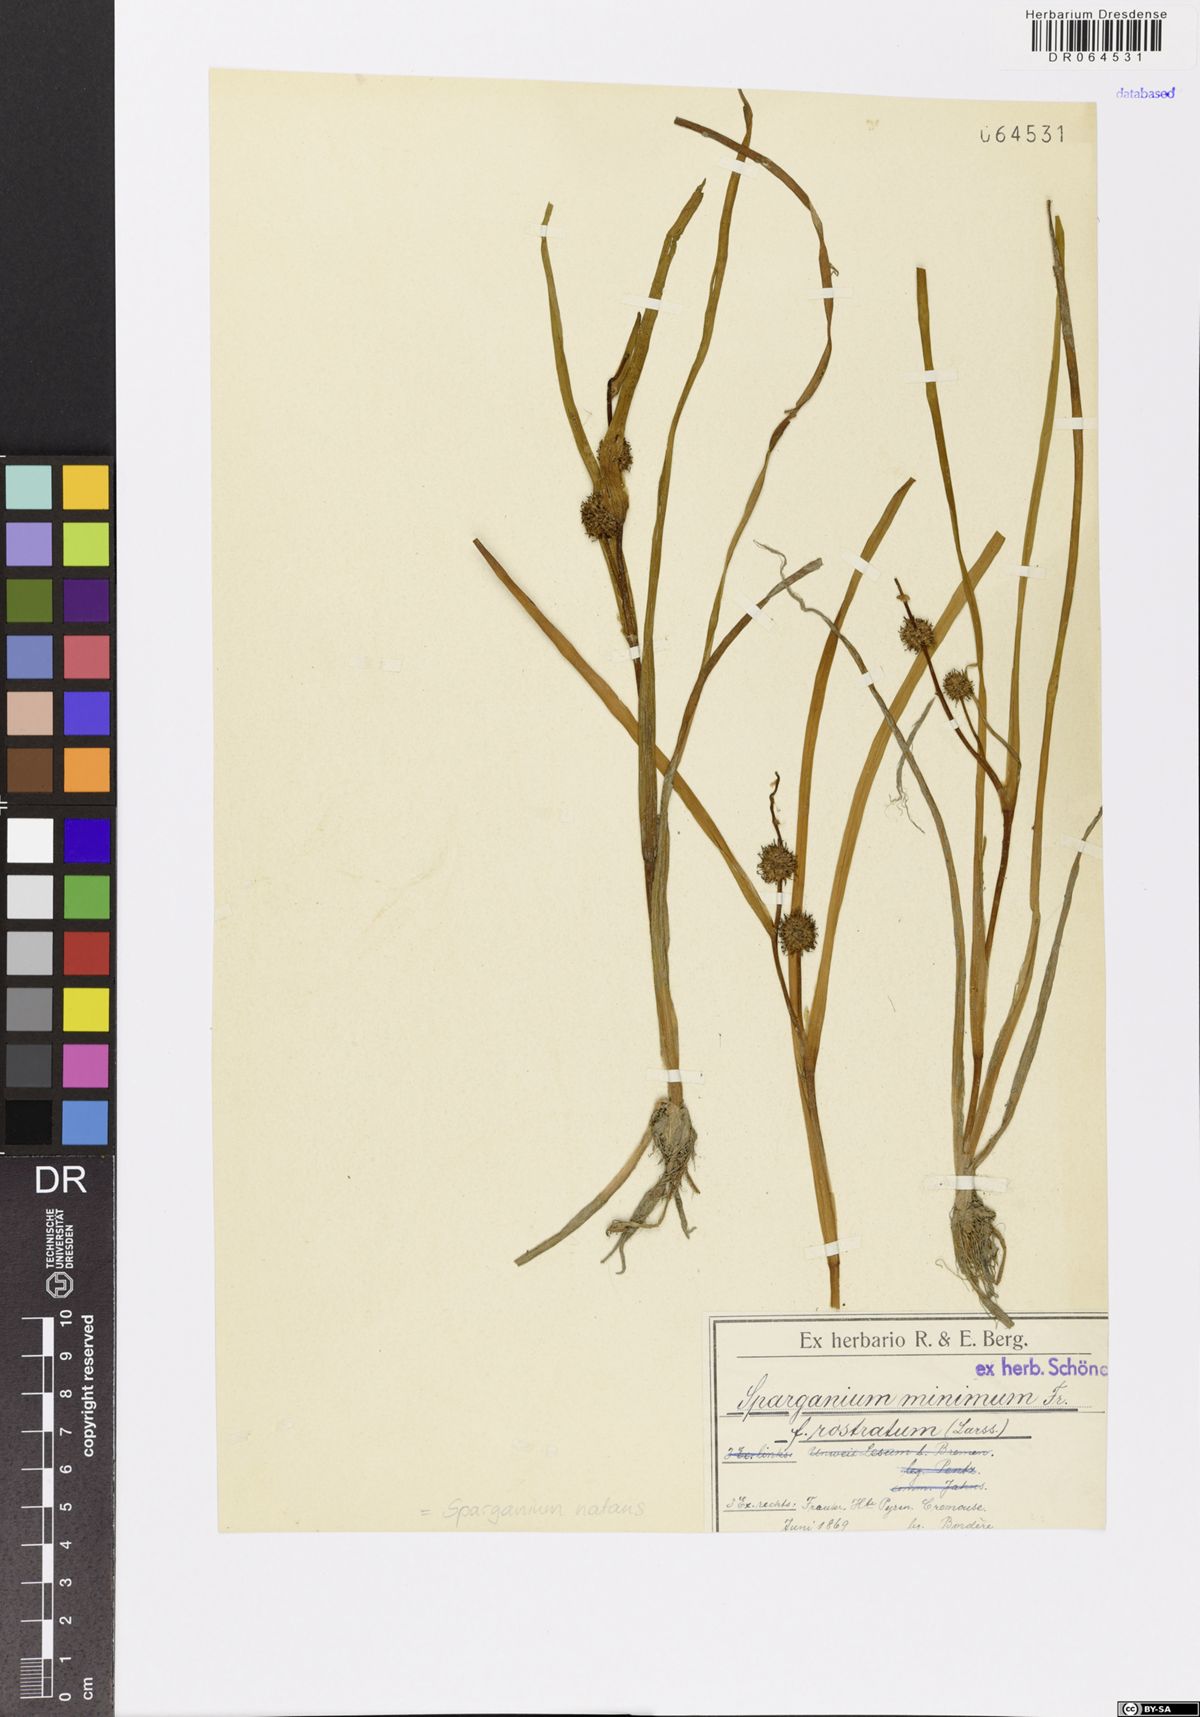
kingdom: Plantae
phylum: Tracheophyta
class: Liliopsida
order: Poales
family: Typhaceae
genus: Sparganium
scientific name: Sparganium natans
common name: Least bur-reed
